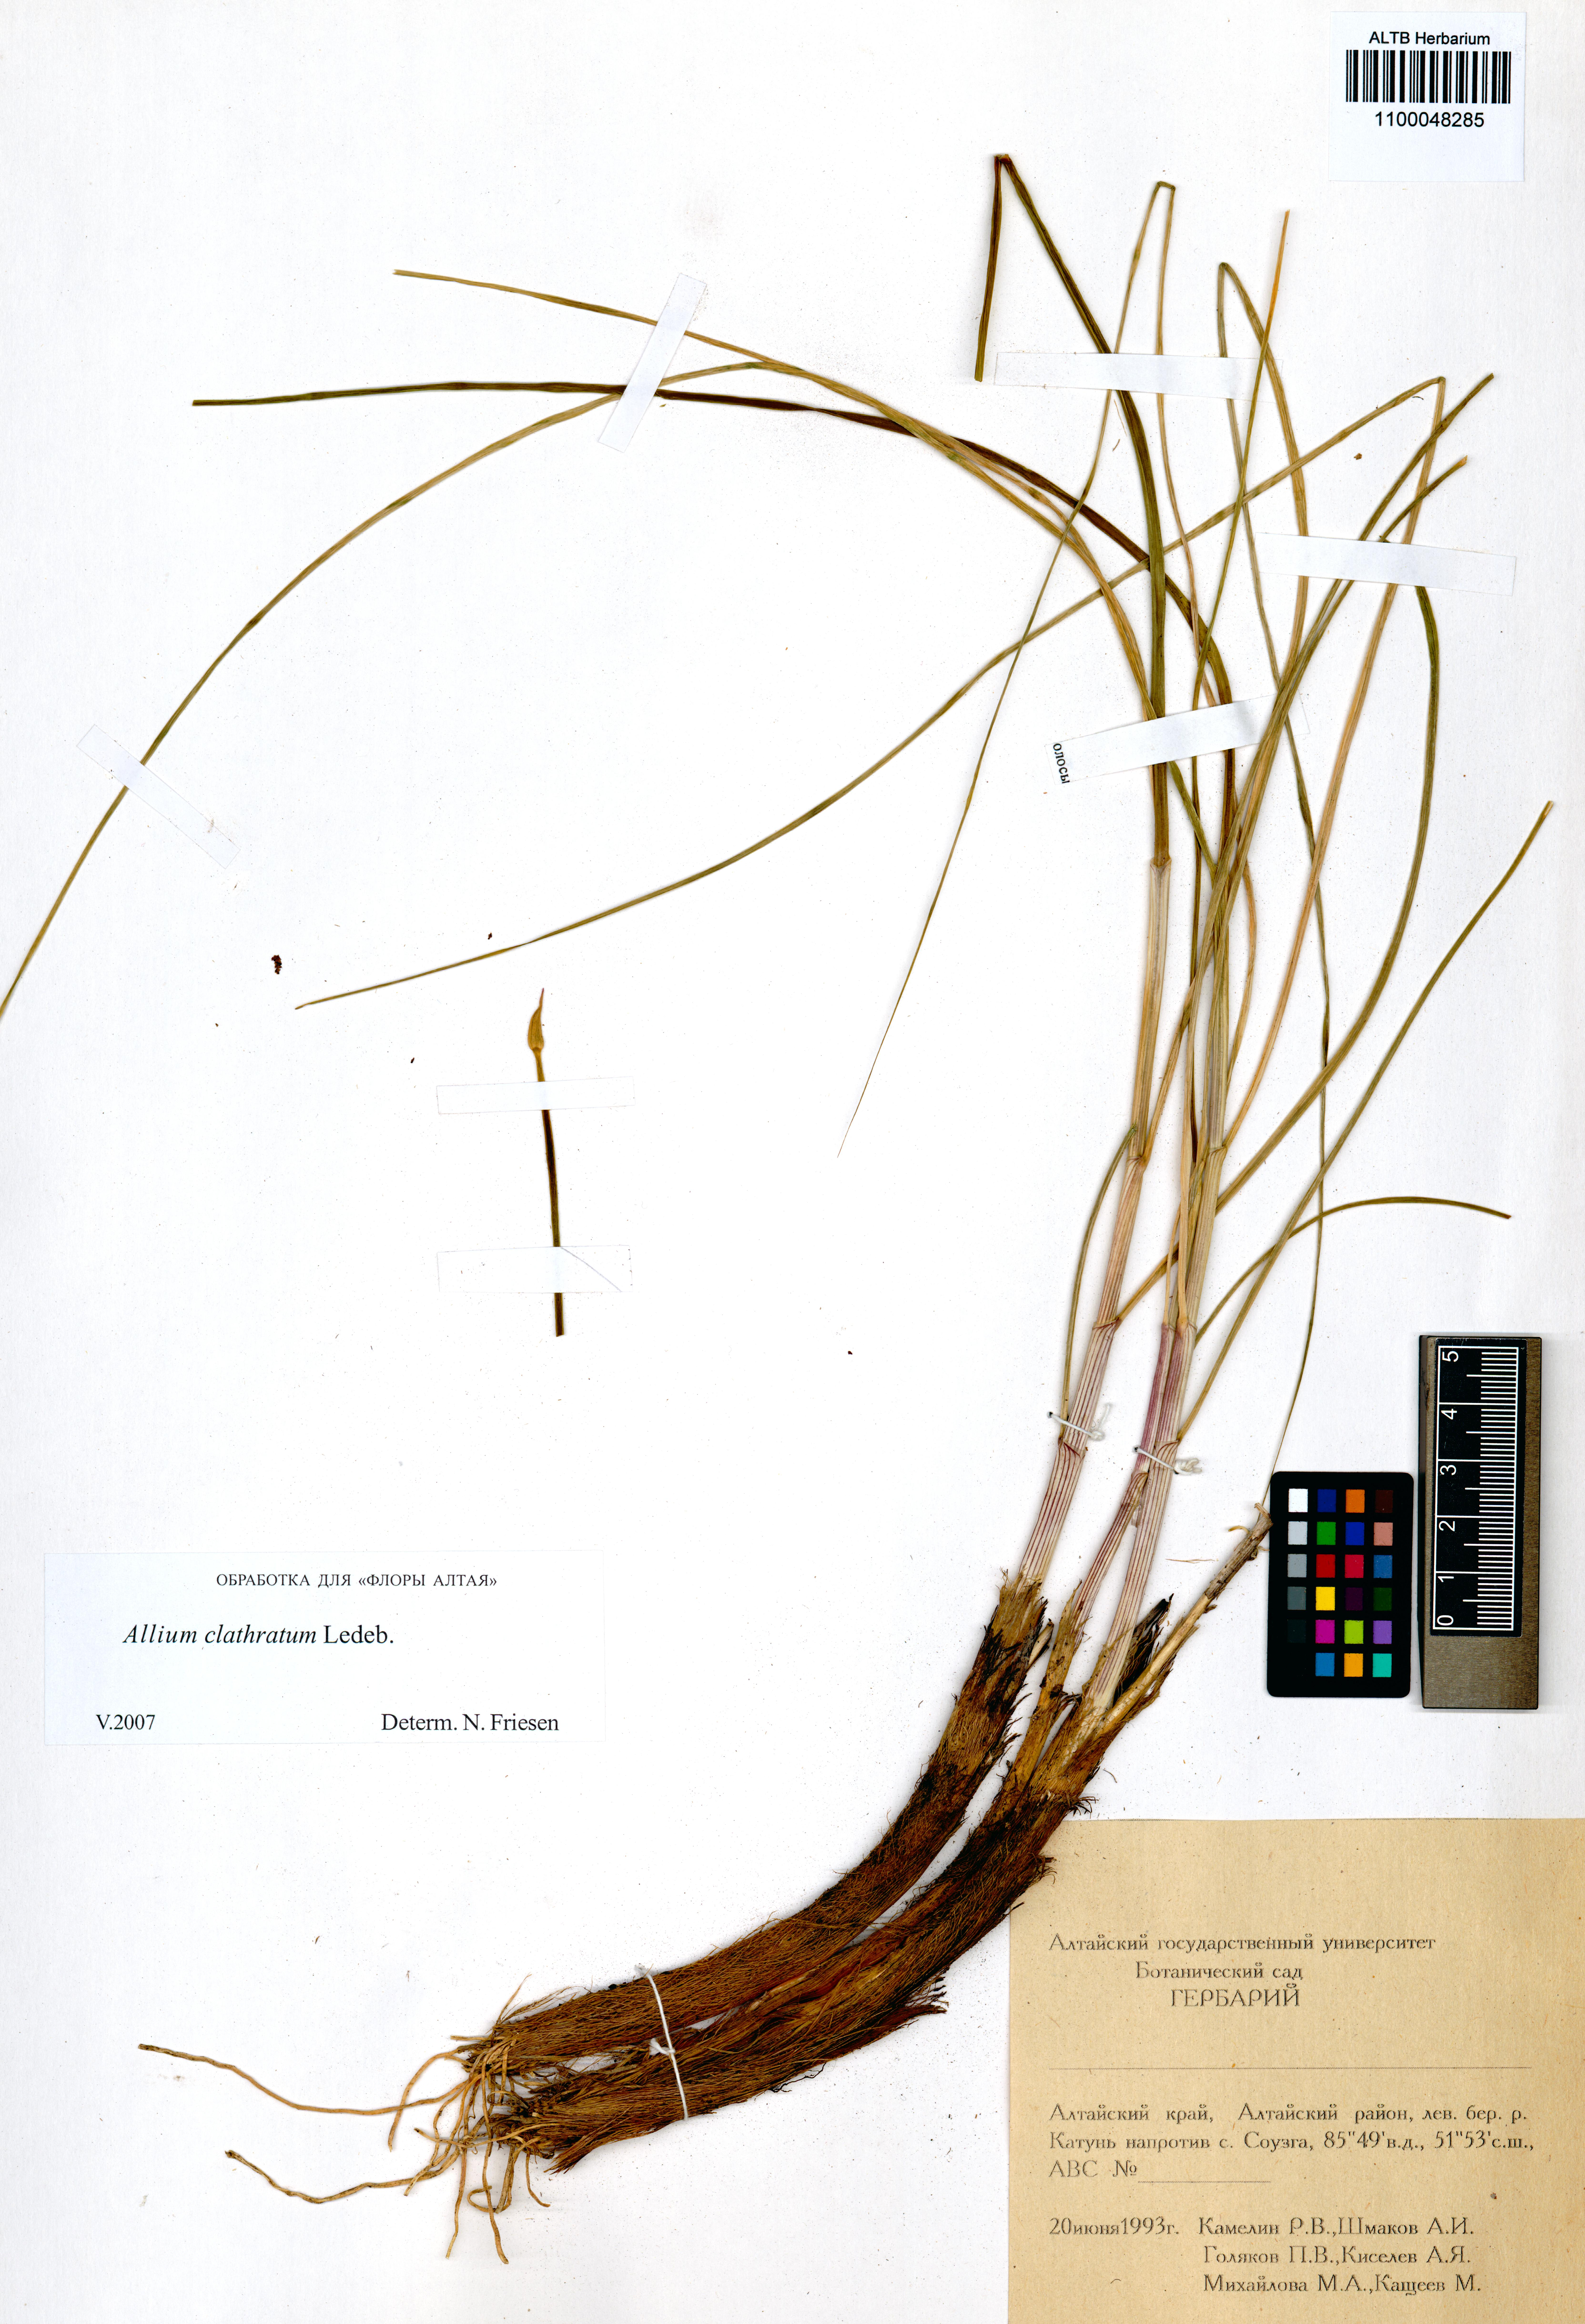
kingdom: Plantae
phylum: Tracheophyta
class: Liliopsida
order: Asparagales
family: Amaryllidaceae
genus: Allium
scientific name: Allium clathratum
